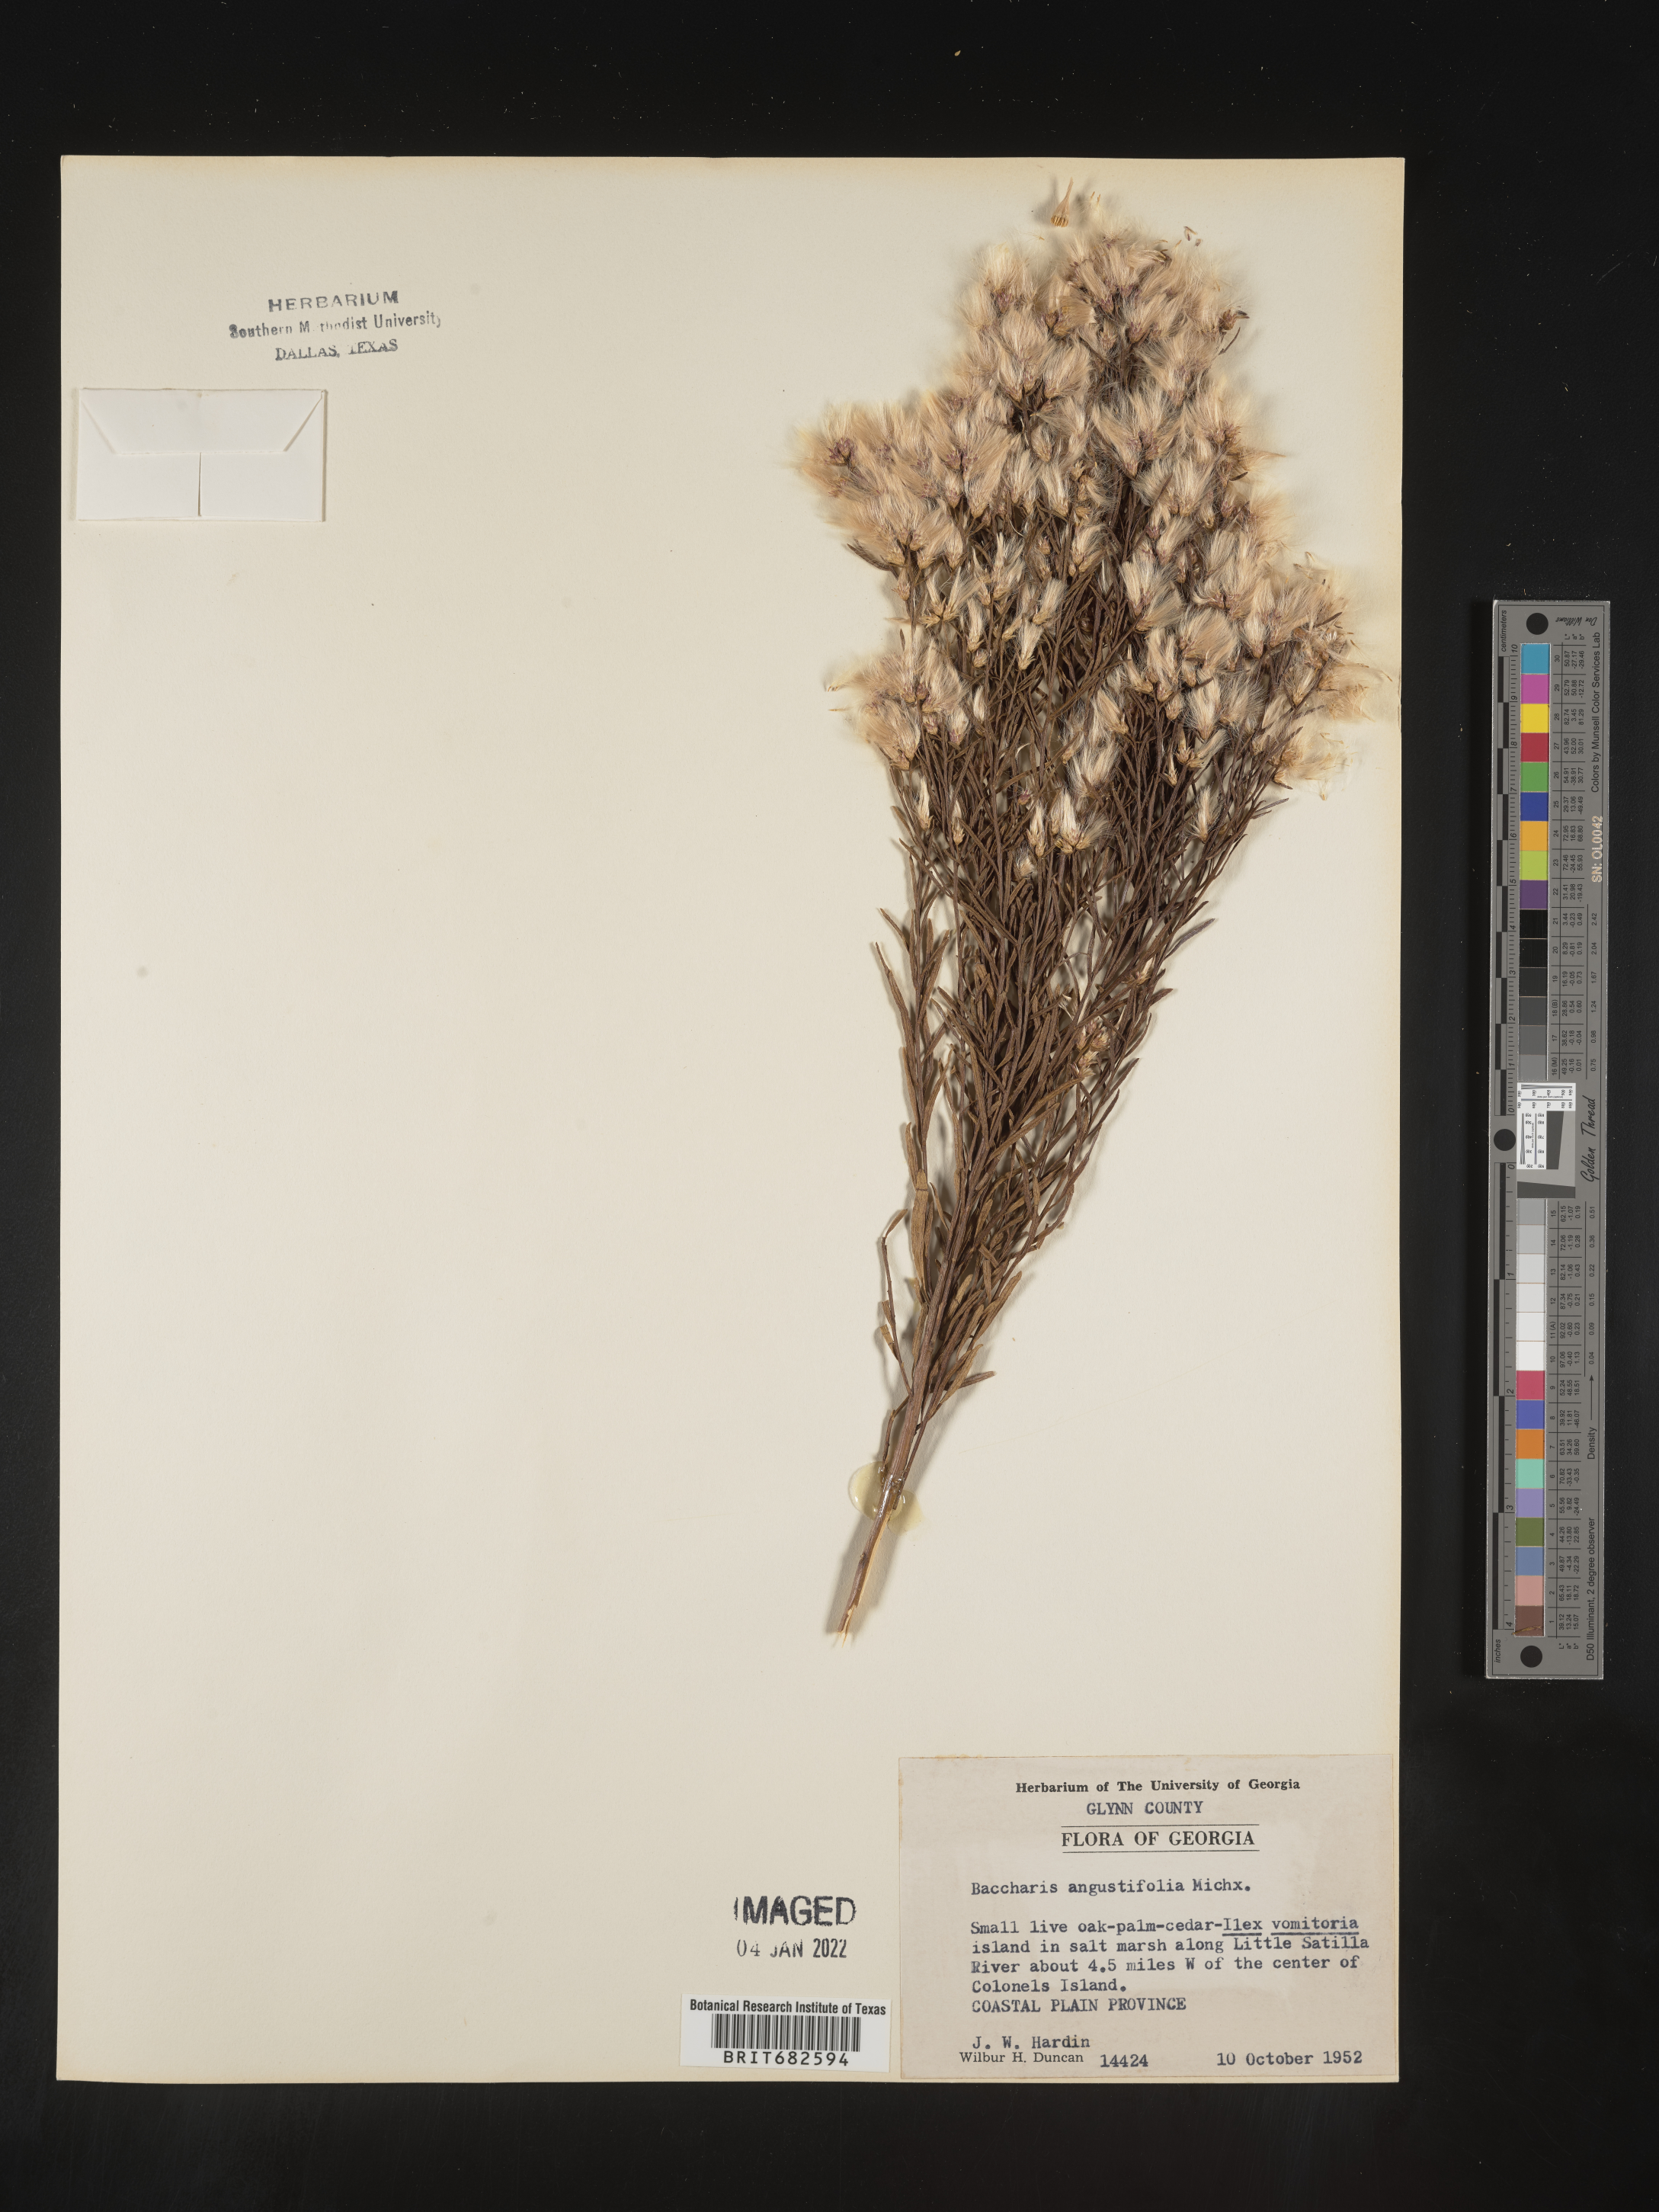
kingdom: Plantae
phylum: Tracheophyta
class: Magnoliopsida
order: Asterales
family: Asteraceae
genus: Baccharis
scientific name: Baccharis angustifolia
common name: Narrow-leaf baccharis
